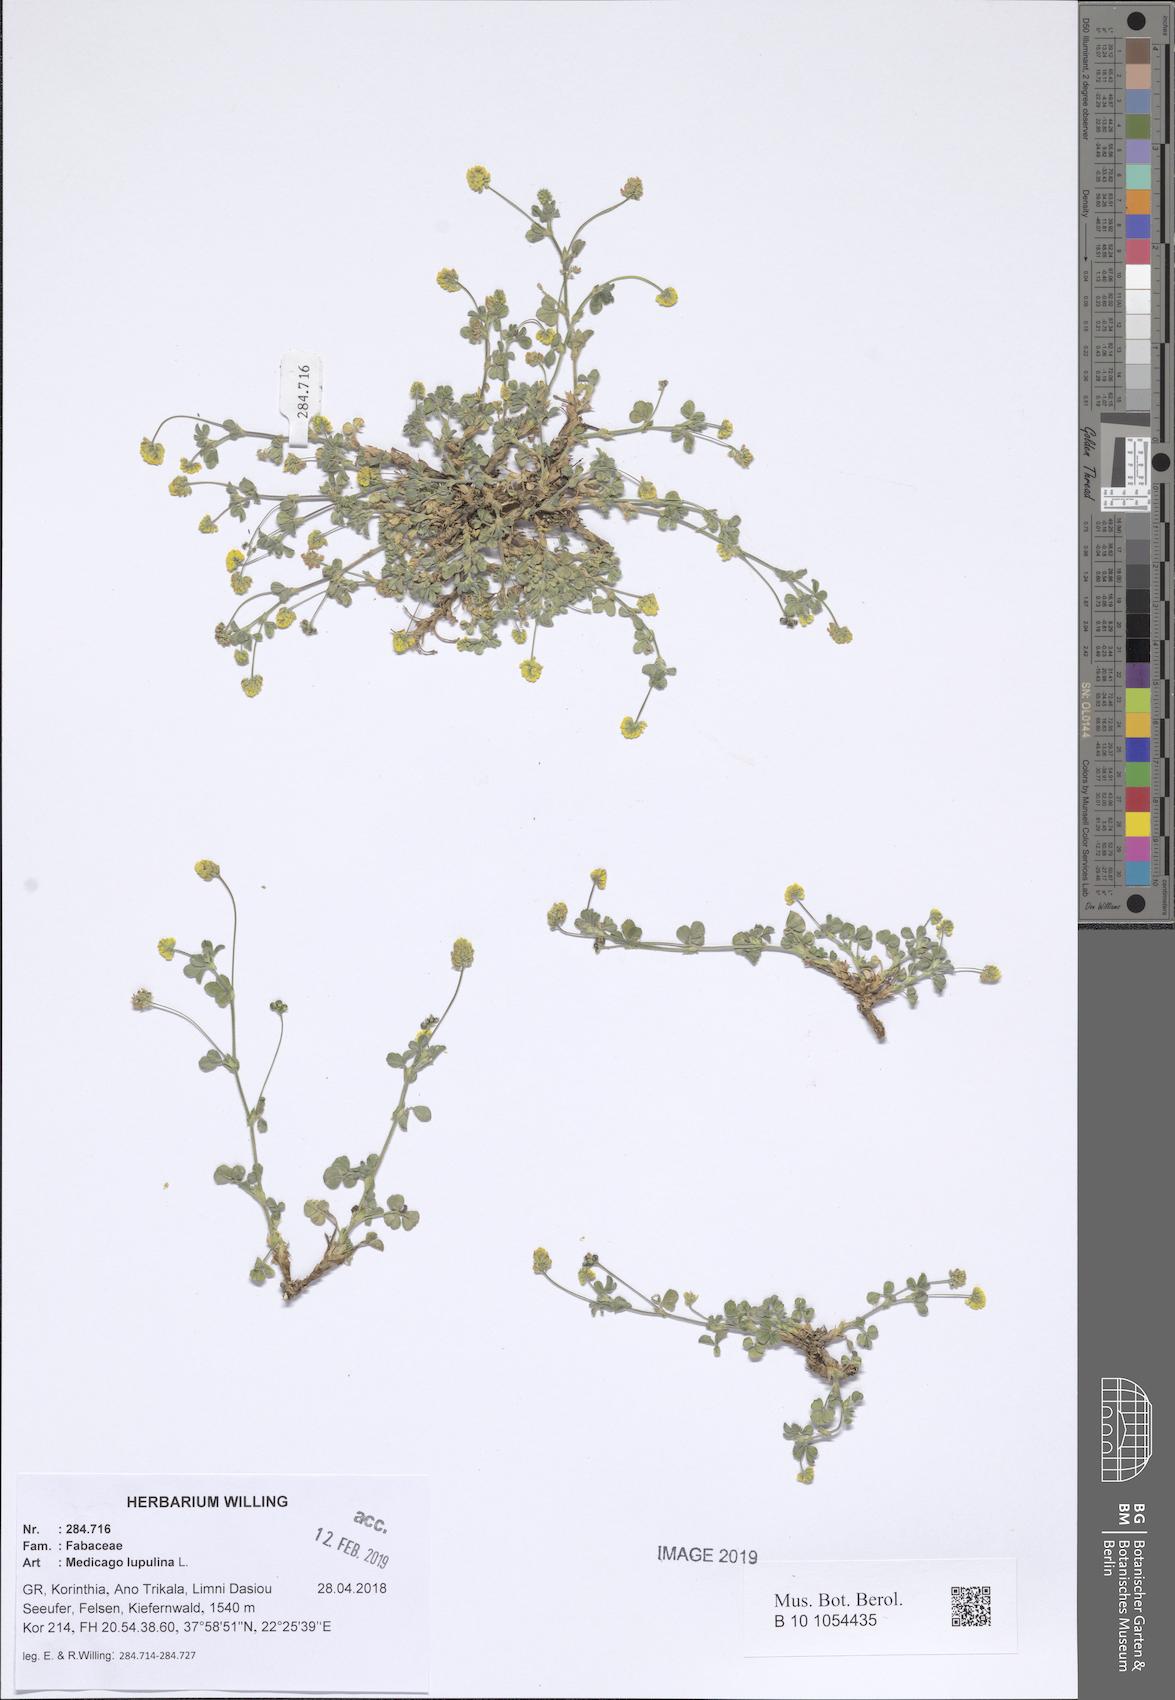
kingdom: Plantae
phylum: Tracheophyta
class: Magnoliopsida
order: Fabales
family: Fabaceae
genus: Medicago
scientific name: Medicago lupulina
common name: Black medick
